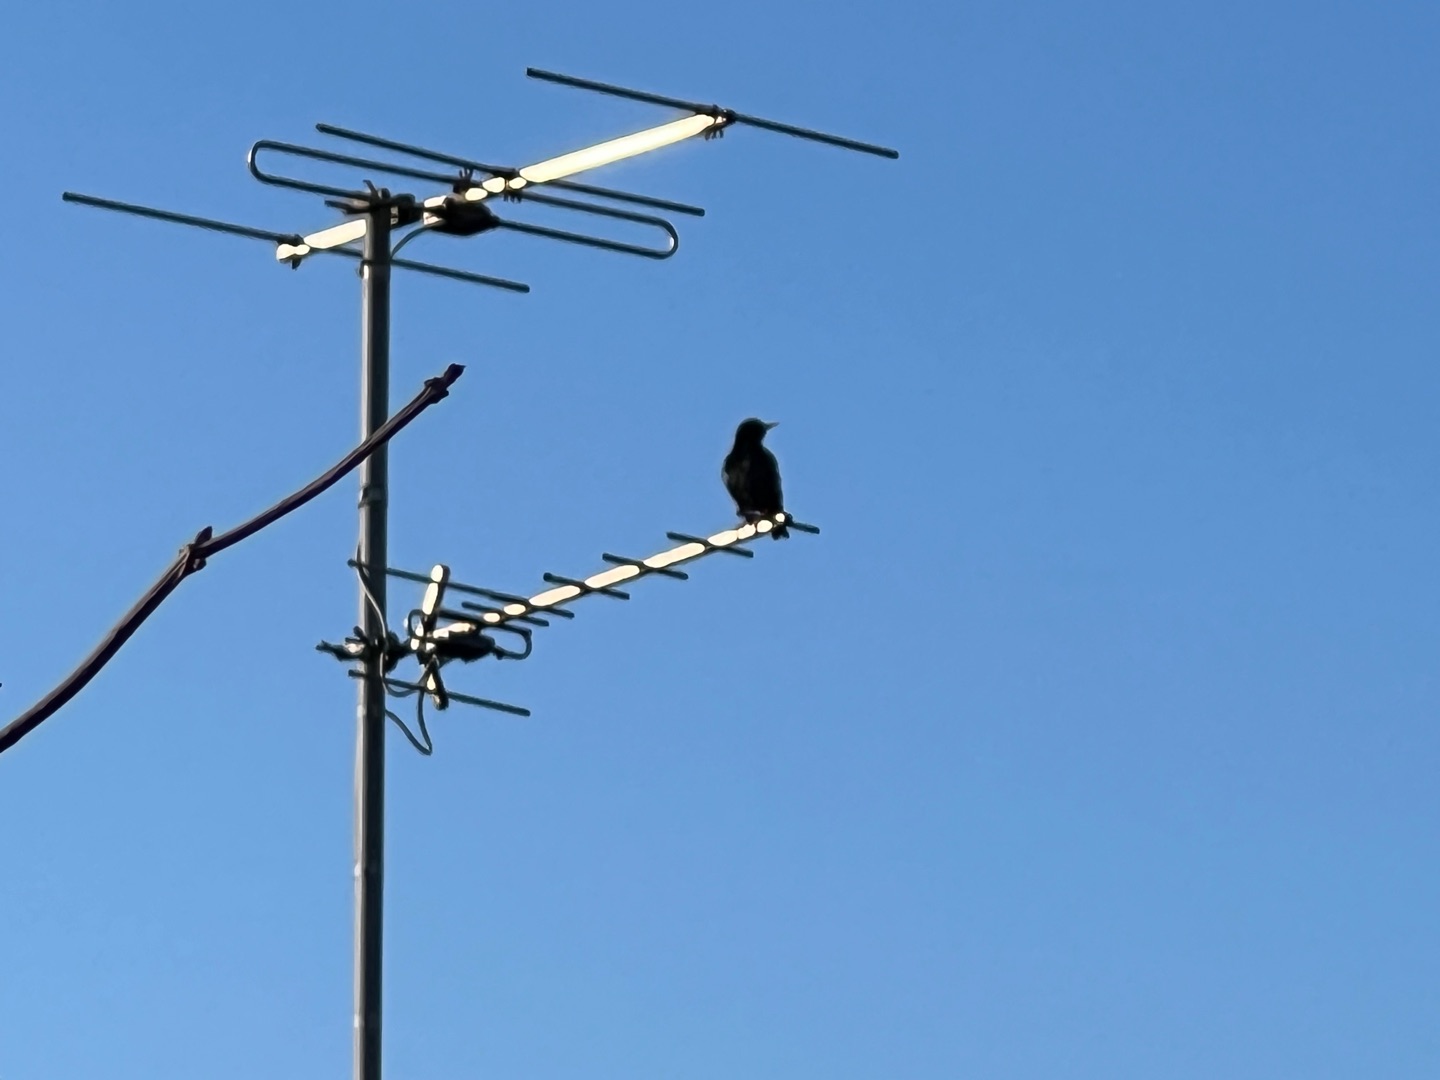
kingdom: Animalia
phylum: Chordata
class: Aves
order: Passeriformes
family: Sturnidae
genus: Sturnus
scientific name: Sturnus vulgaris
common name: Stær
